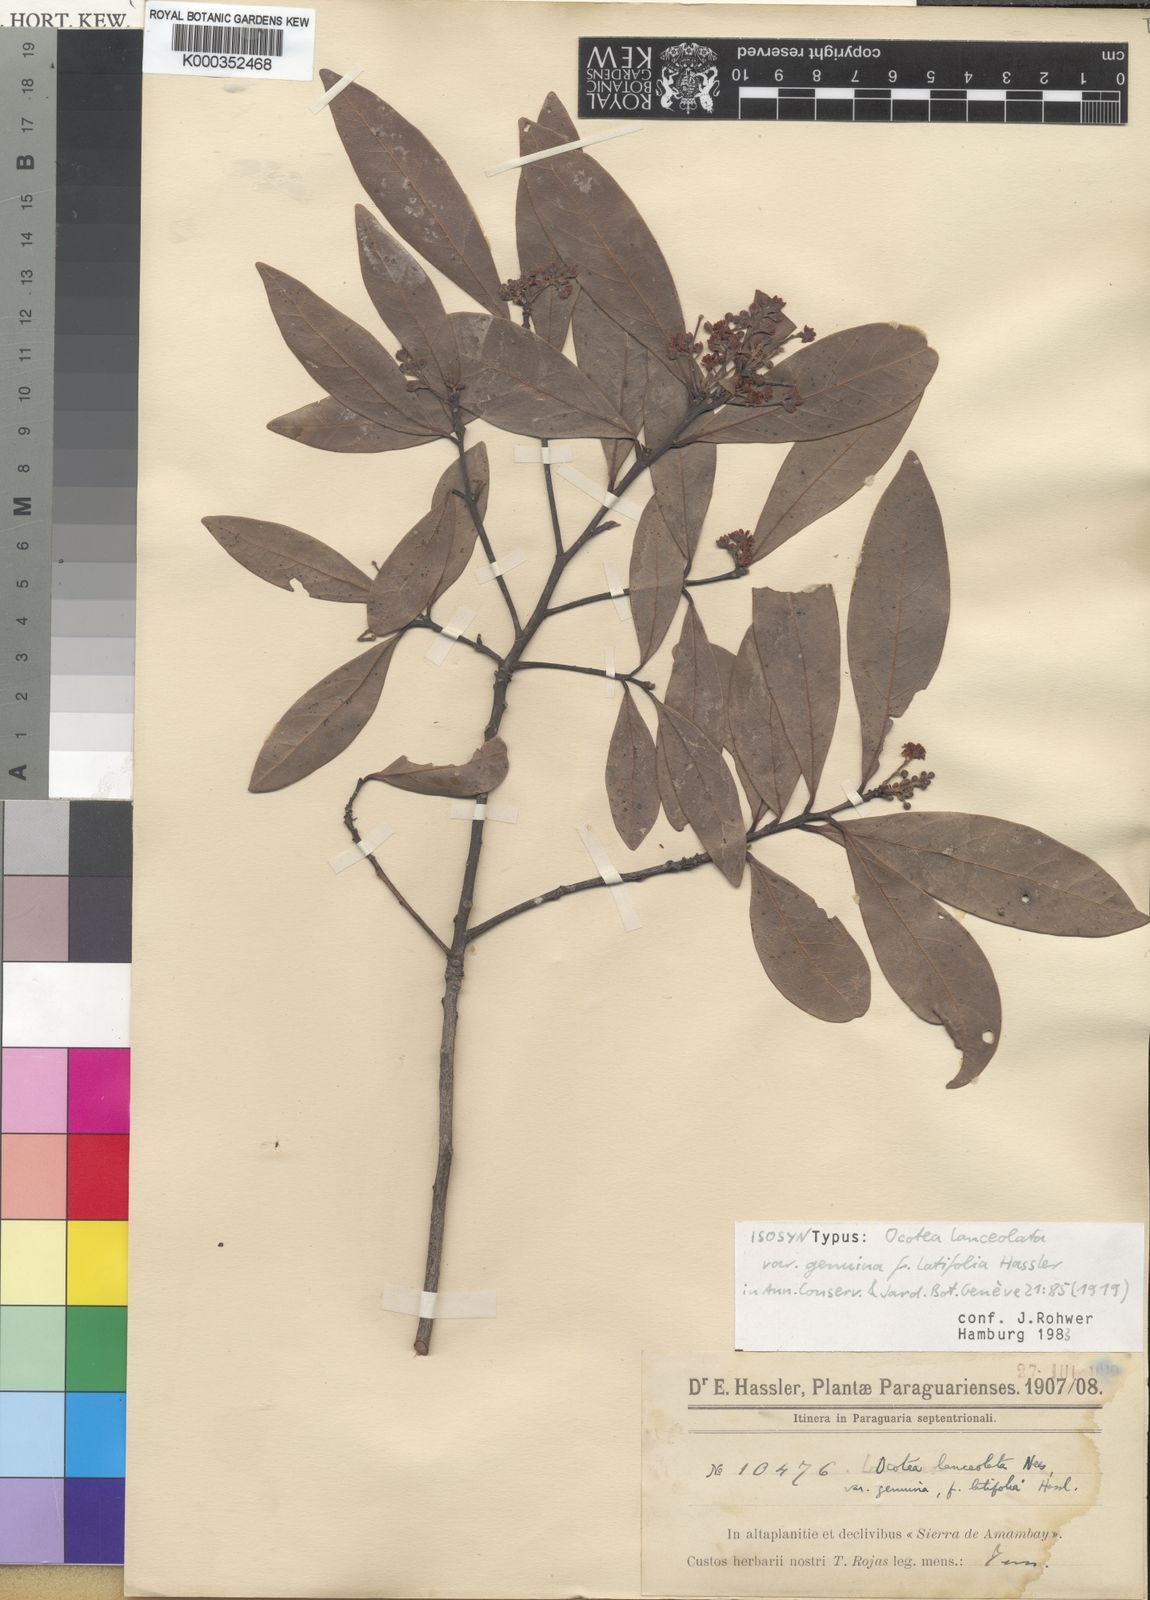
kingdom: Plantae
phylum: Tracheophyta
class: Magnoliopsida
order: Laurales
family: Lauraceae
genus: Phoebe
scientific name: Phoebe lanceolata
